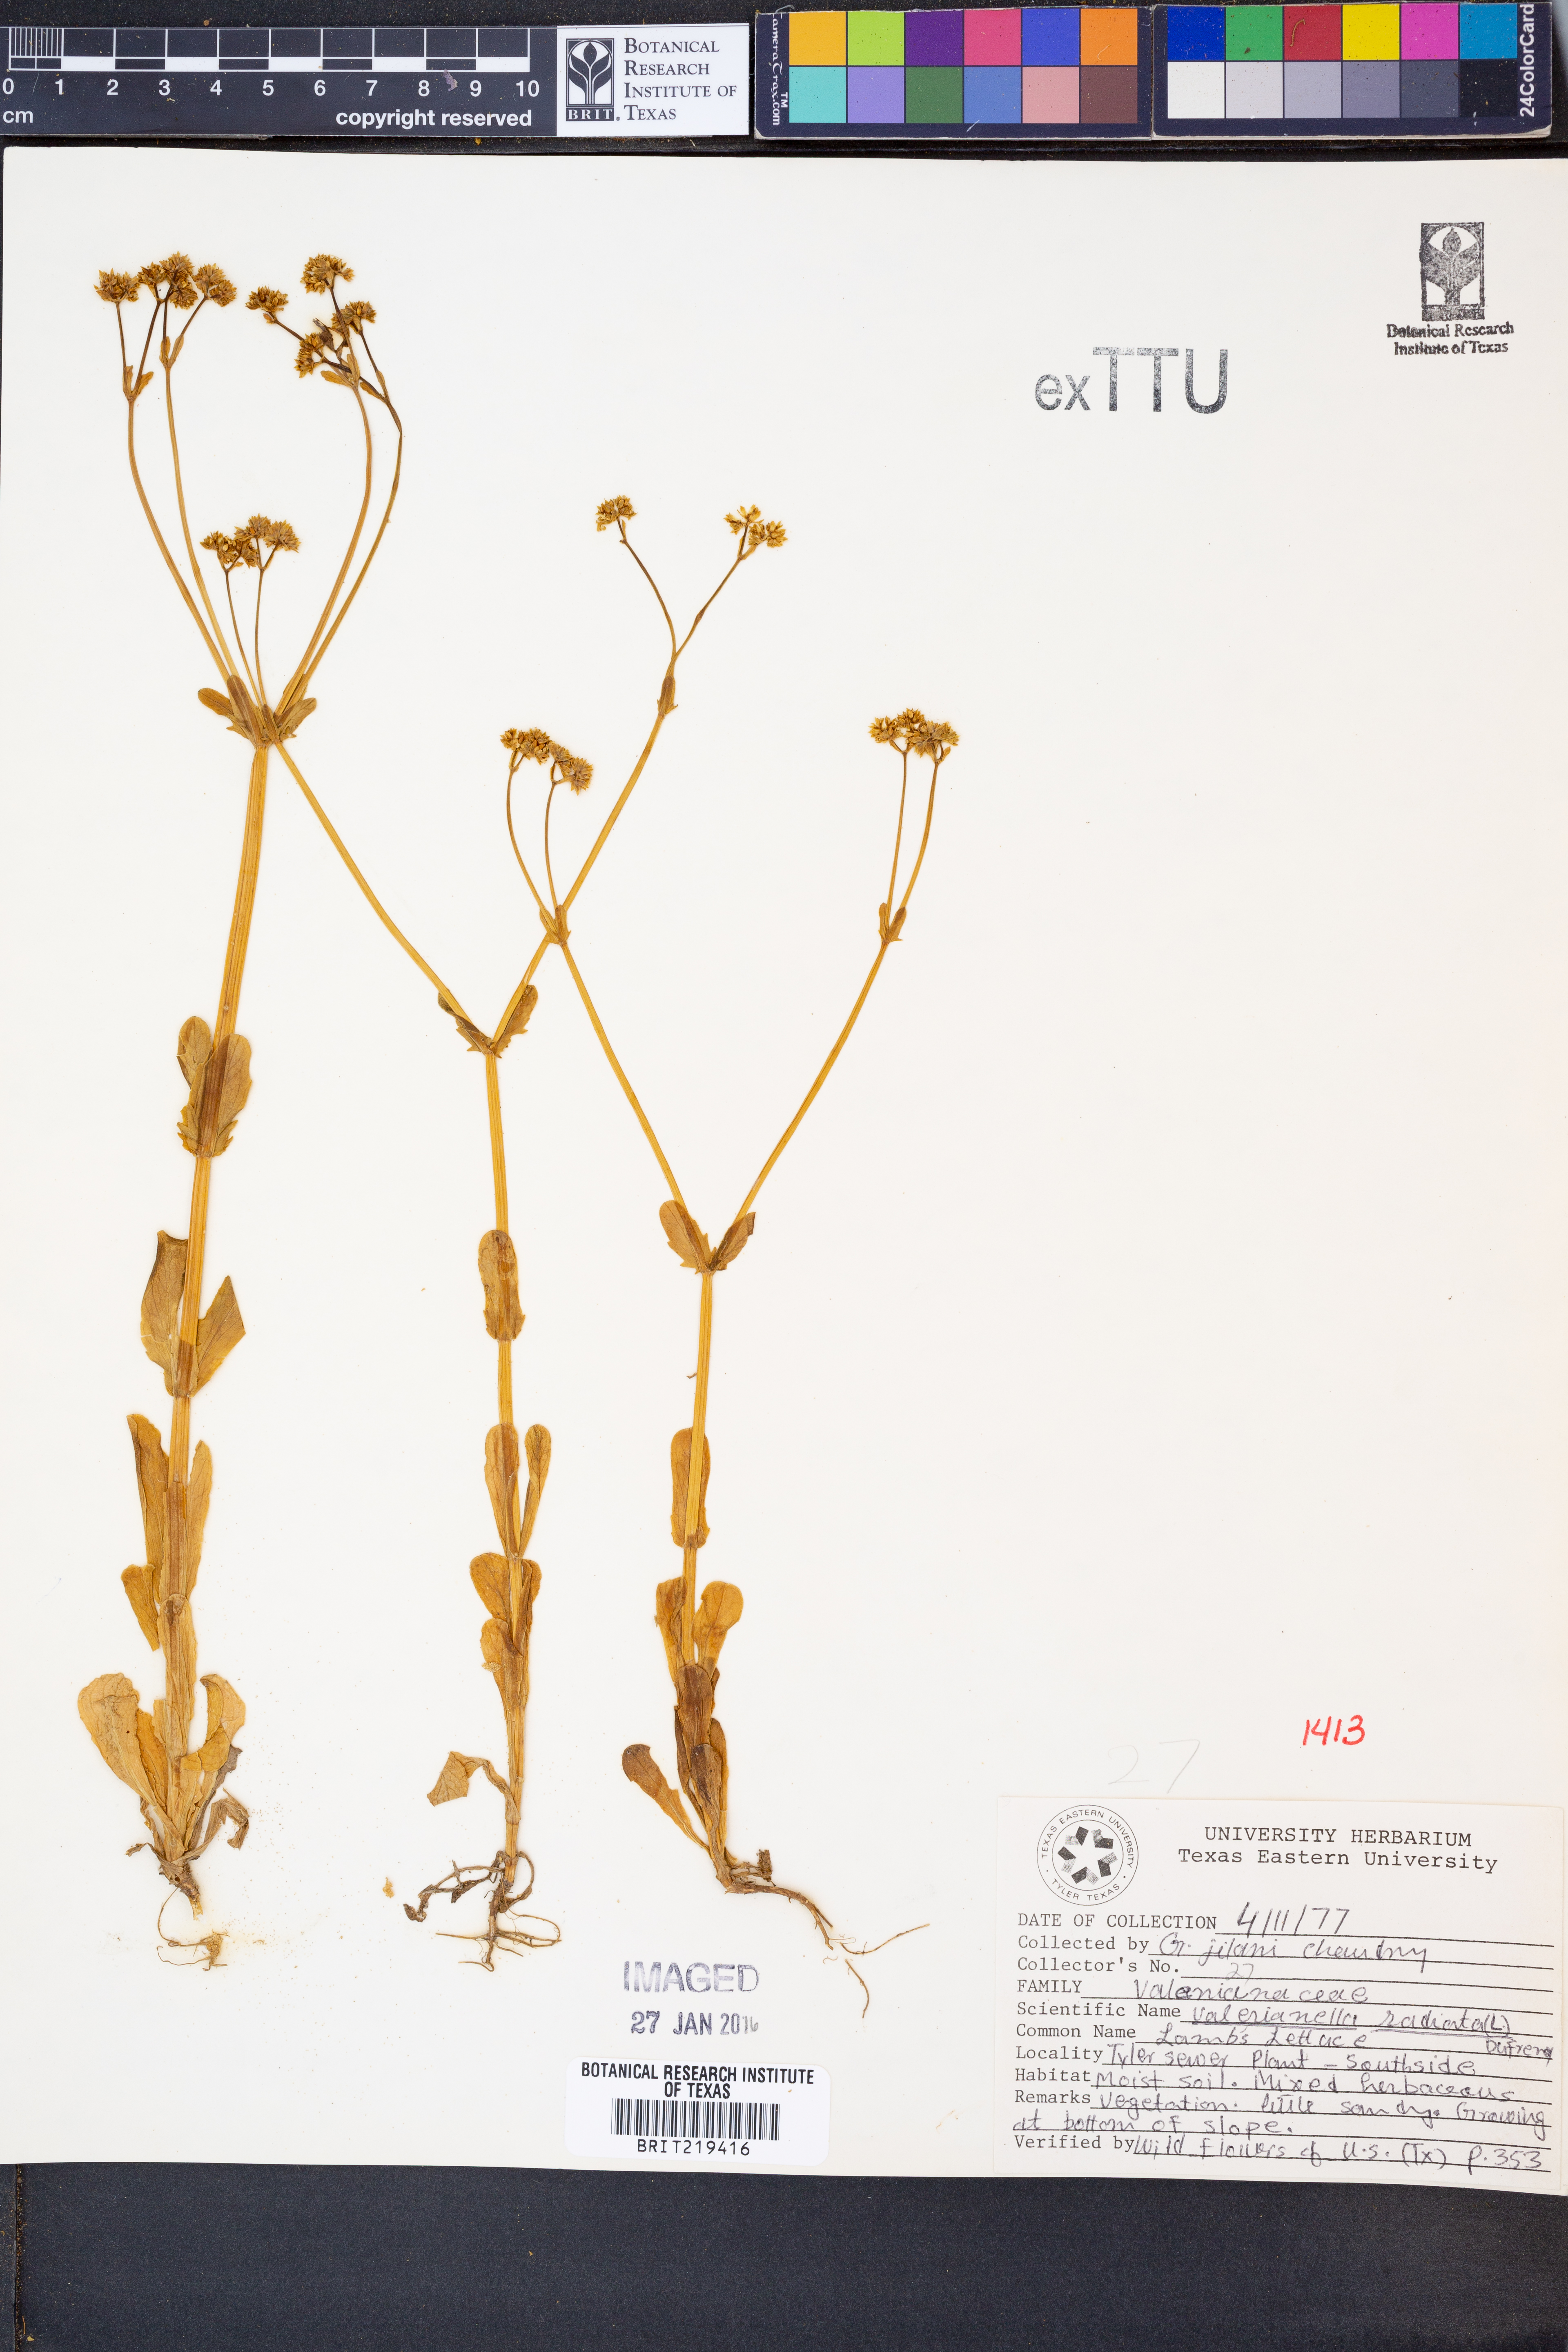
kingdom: Plantae
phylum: Tracheophyta
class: Magnoliopsida
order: Dipsacales
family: Caprifoliaceae
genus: Valerianella
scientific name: Valerianella radiata
